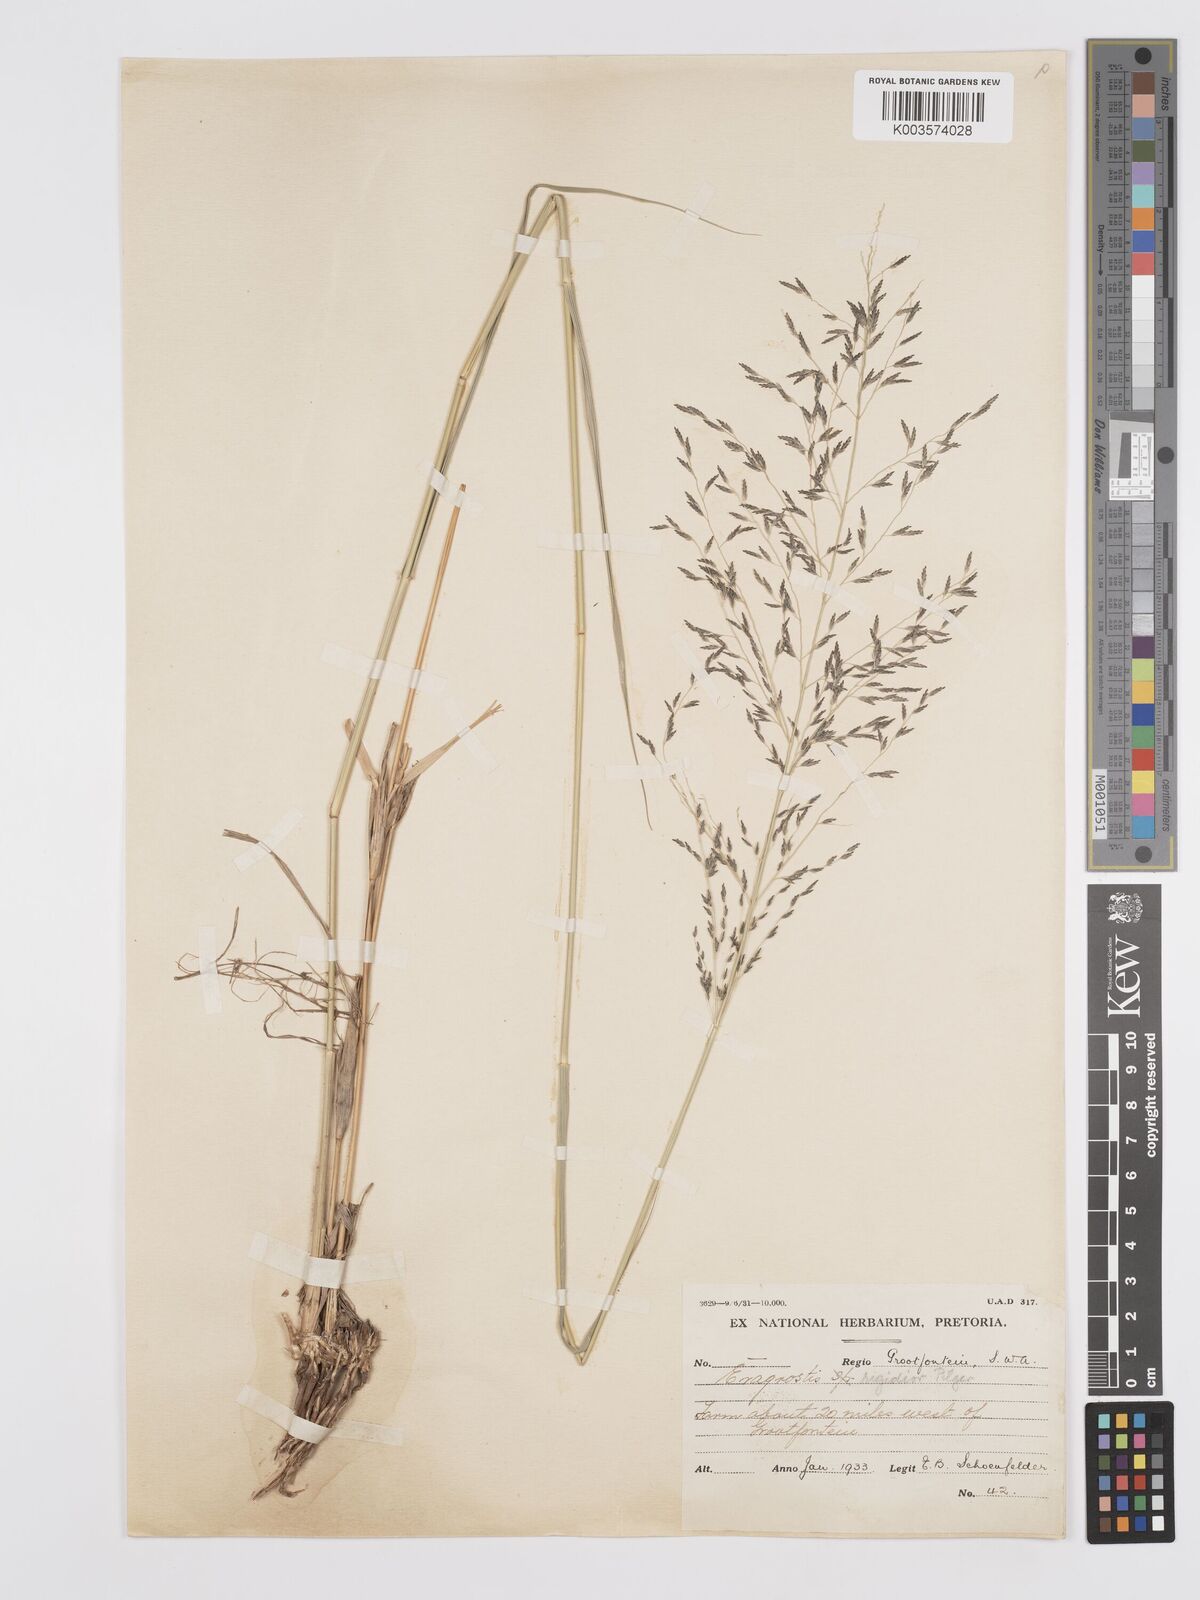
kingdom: Plantae
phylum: Tracheophyta
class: Liliopsida
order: Poales
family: Poaceae
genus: Eragrostis
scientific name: Eragrostis cylindriflora
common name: Cylinderflower lovegrass
